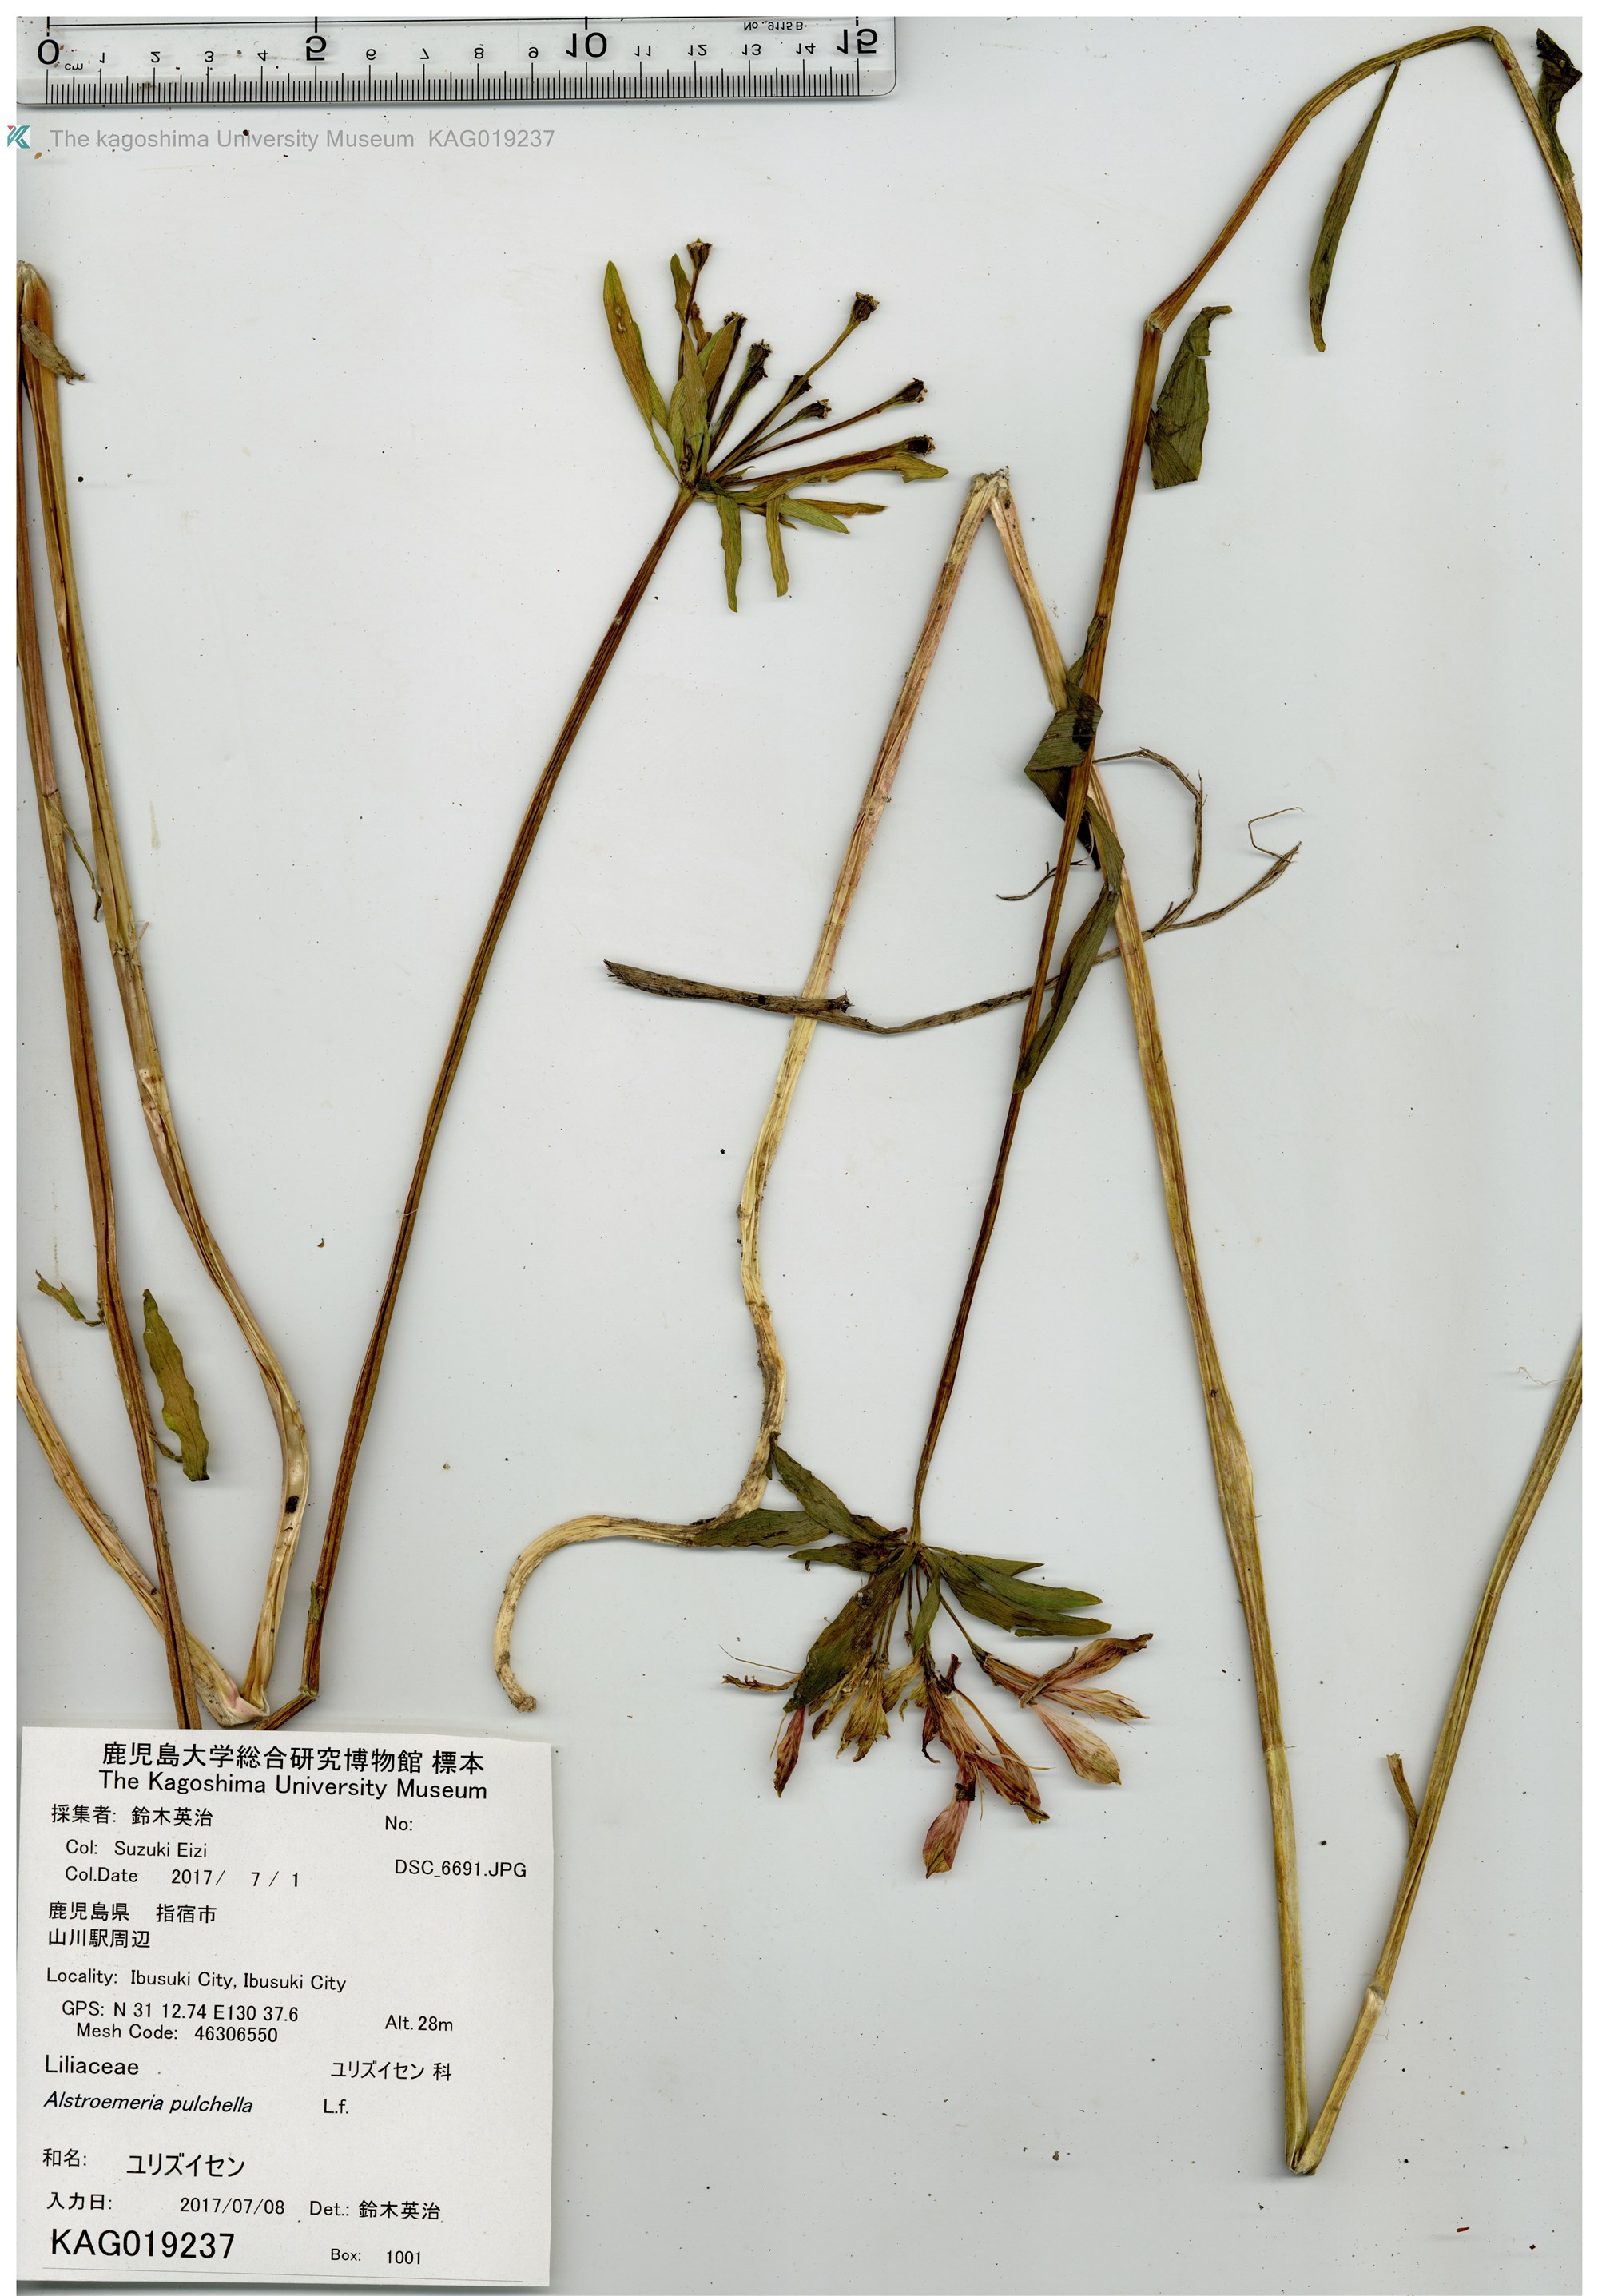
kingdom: Plantae
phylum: Tracheophyta
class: Liliopsida
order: Liliales
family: Alstroemeriaceae
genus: Alstroemeria
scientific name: Alstroemeria pelegrina
